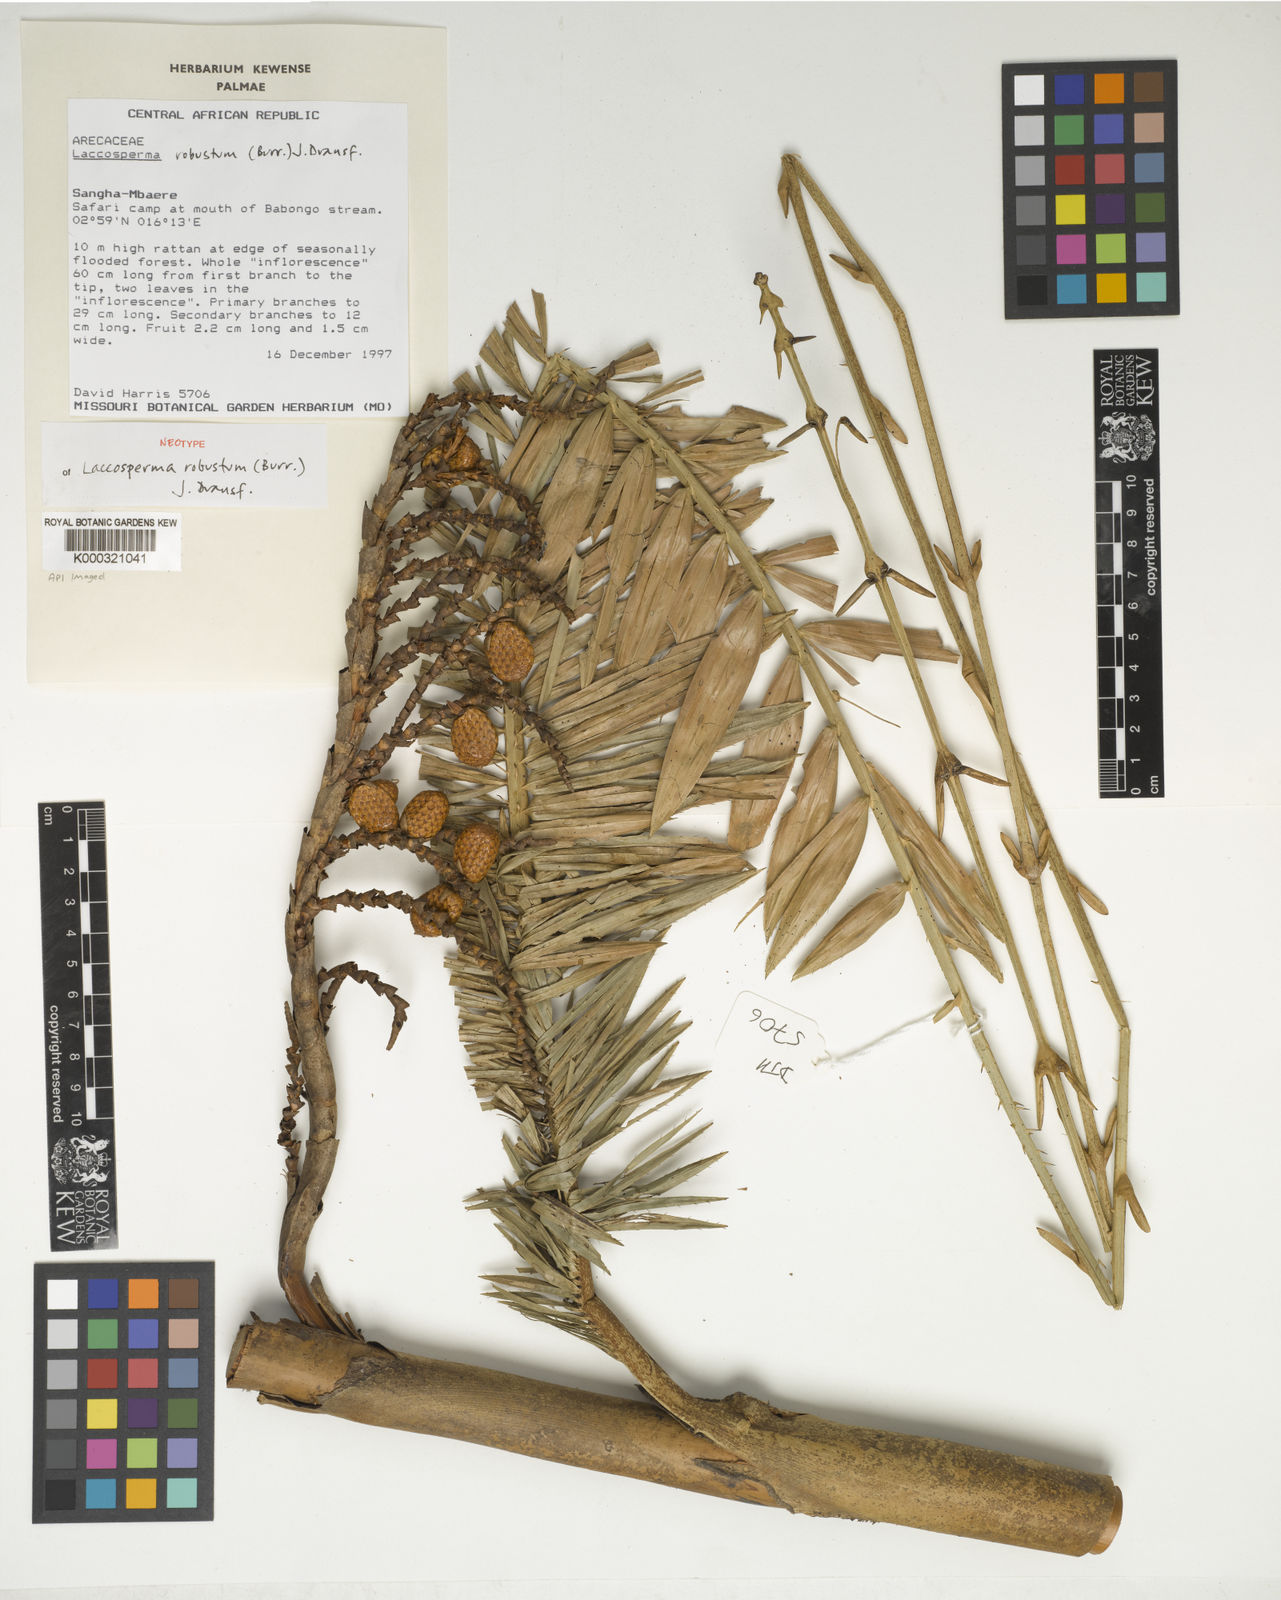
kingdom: Plantae
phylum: Tracheophyta
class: Liliopsida
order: Arecales
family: Arecaceae
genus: Laccosperma
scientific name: Laccosperma robustum
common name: Rattan
